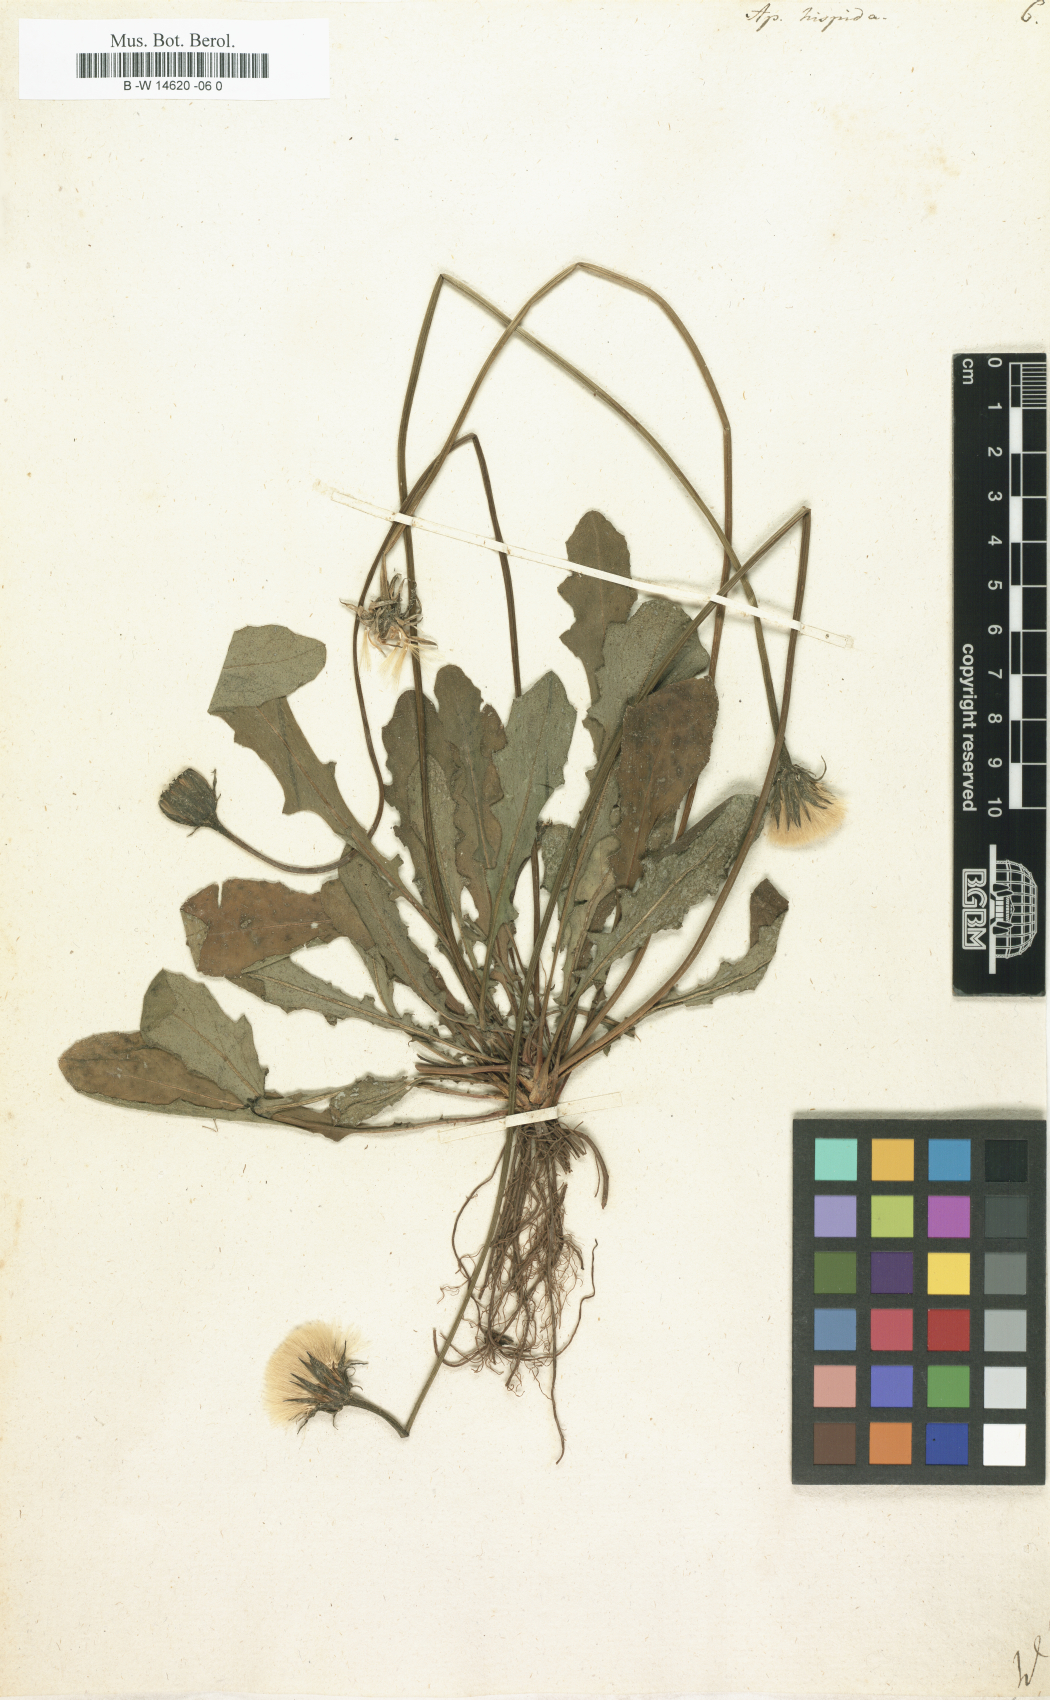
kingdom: Plantae
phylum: Tracheophyta
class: Magnoliopsida
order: Asterales
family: Asteraceae
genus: Leontodon
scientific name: Leontodon
